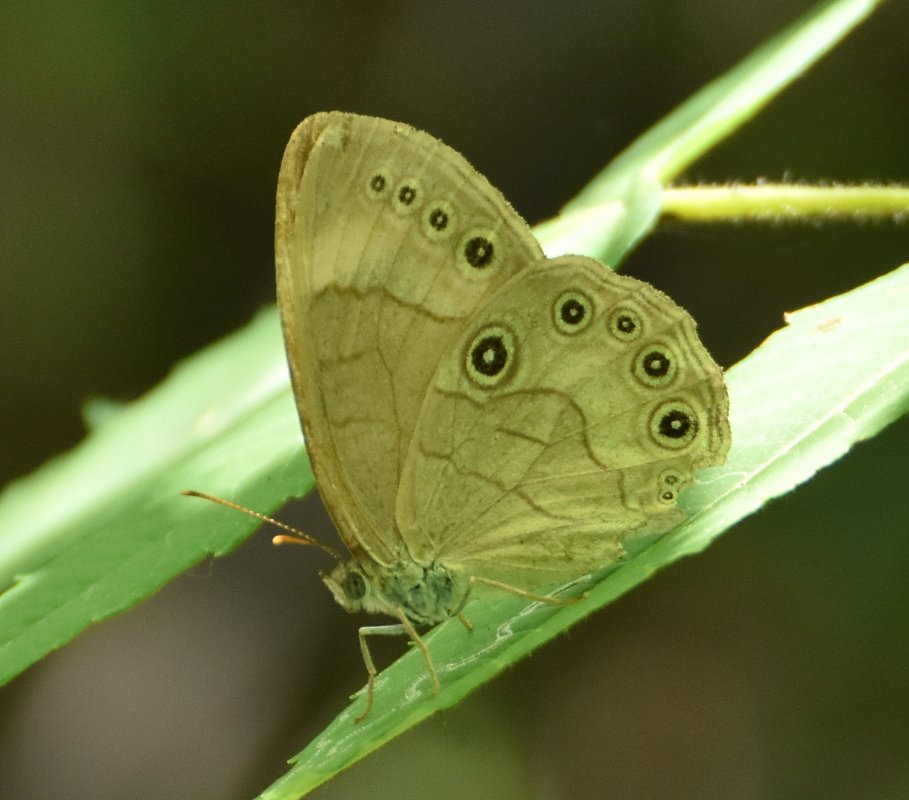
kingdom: Animalia
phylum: Arthropoda
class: Insecta
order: Lepidoptera
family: Nymphalidae
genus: Lethe
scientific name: Lethe eurydice
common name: Appalachian Eyed Brown
